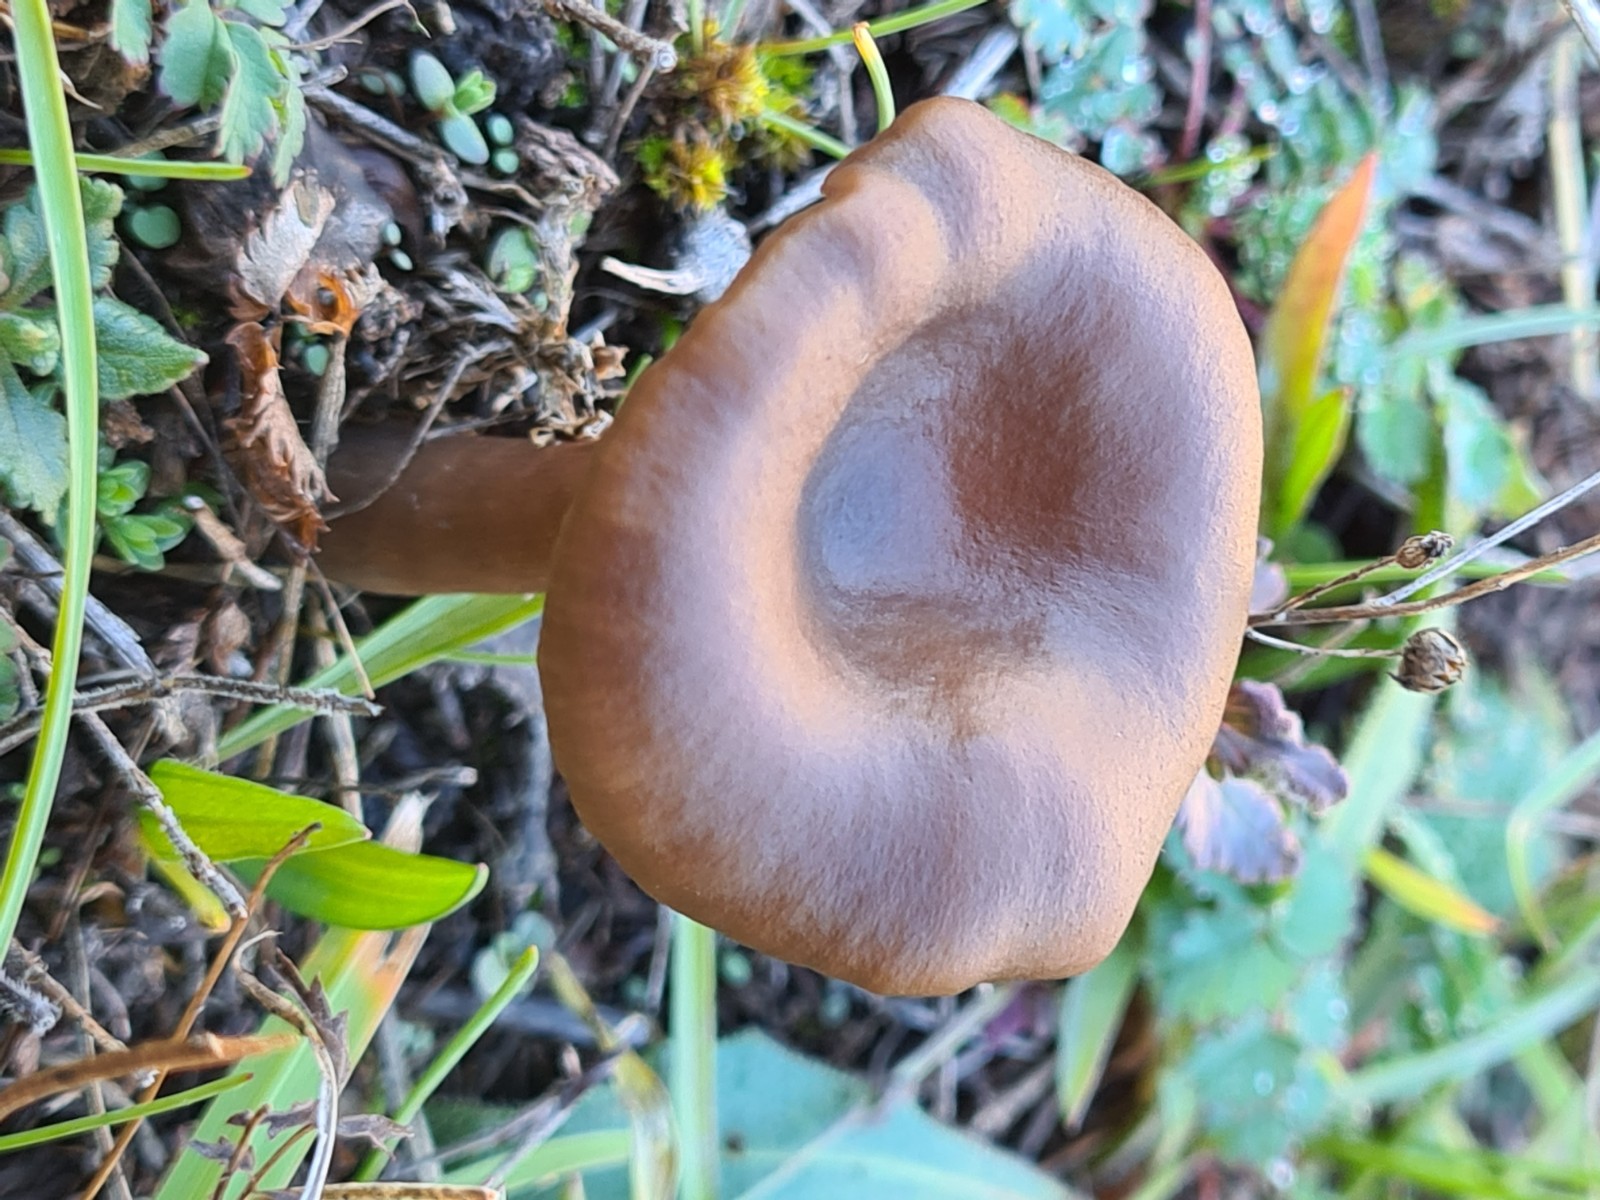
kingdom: Fungi
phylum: Basidiomycota
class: Agaricomycetes
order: Agaricales
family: Pseudoclitocybaceae
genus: Pseudoclitocybe
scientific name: Pseudoclitocybe expallens
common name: lille bægertragthat
